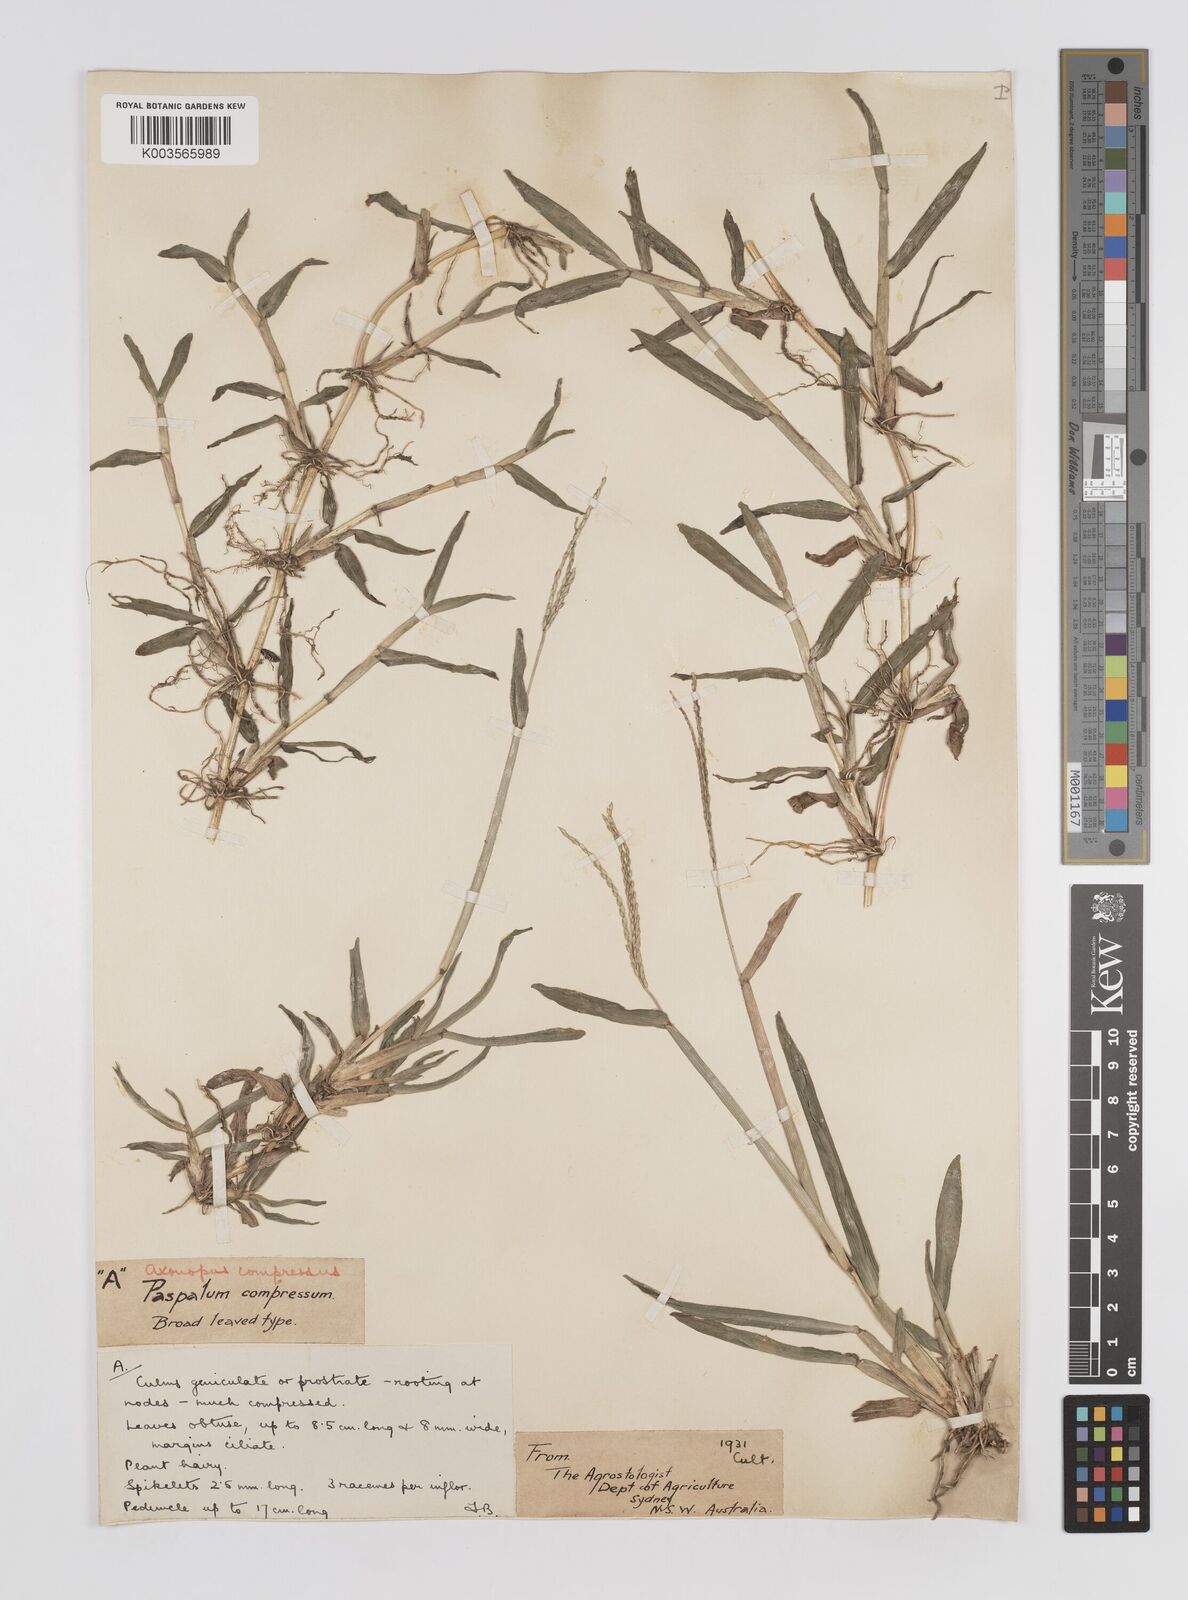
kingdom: Plantae
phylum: Tracheophyta
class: Liliopsida
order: Poales
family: Poaceae
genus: Axonopus
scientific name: Axonopus compressus
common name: American carpet grass
